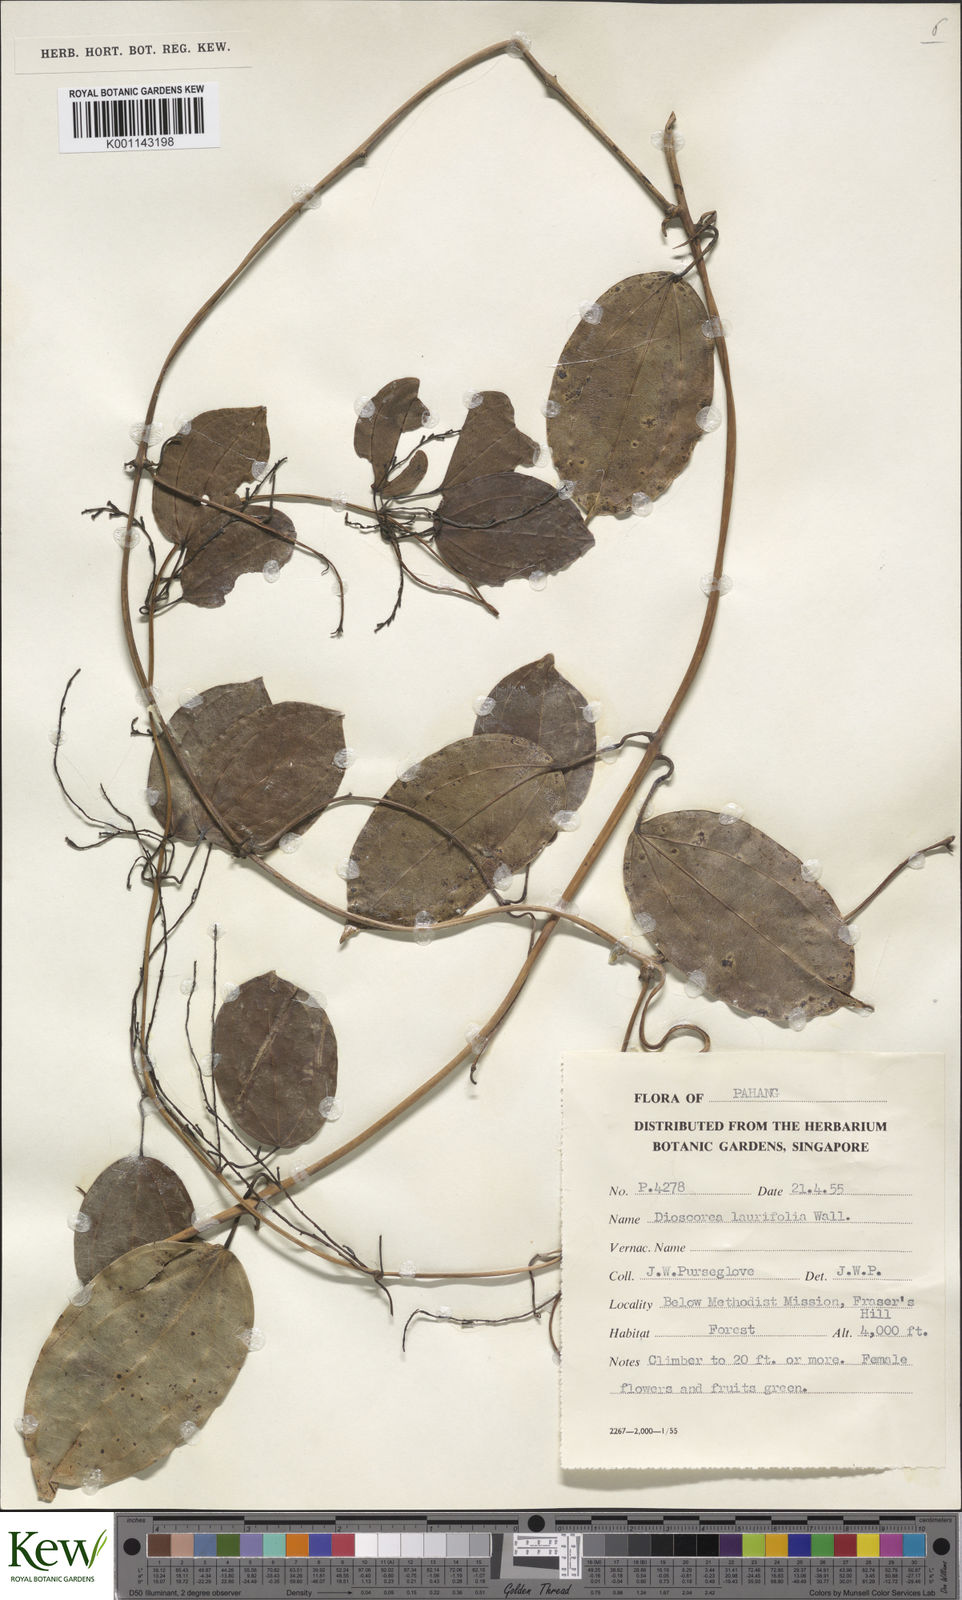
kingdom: Plantae
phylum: Tracheophyta
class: Liliopsida
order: Dioscoreales
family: Dioscoreaceae
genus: Dioscorea
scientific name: Dioscorea laurifolia
